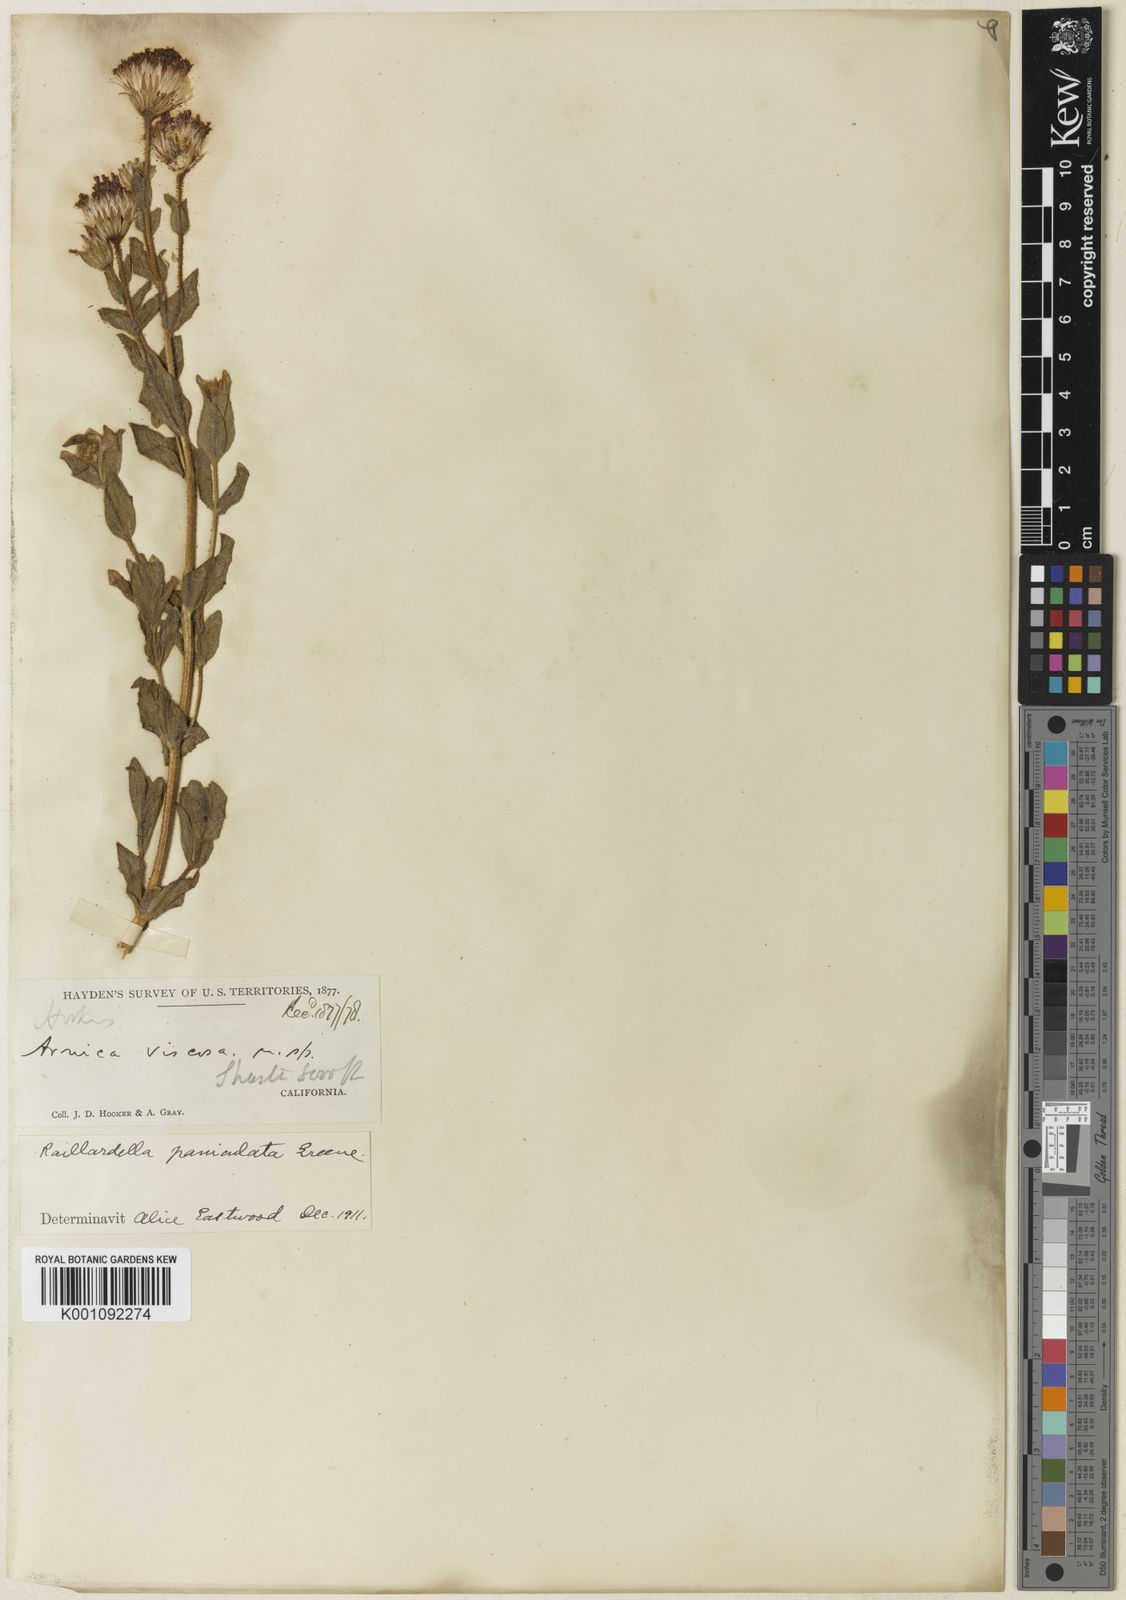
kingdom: Plantae
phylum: Tracheophyta
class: Magnoliopsida
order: Asterales
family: Asteraceae
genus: Arnica
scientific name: Arnica viscosa
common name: Mt. shasta arnica
